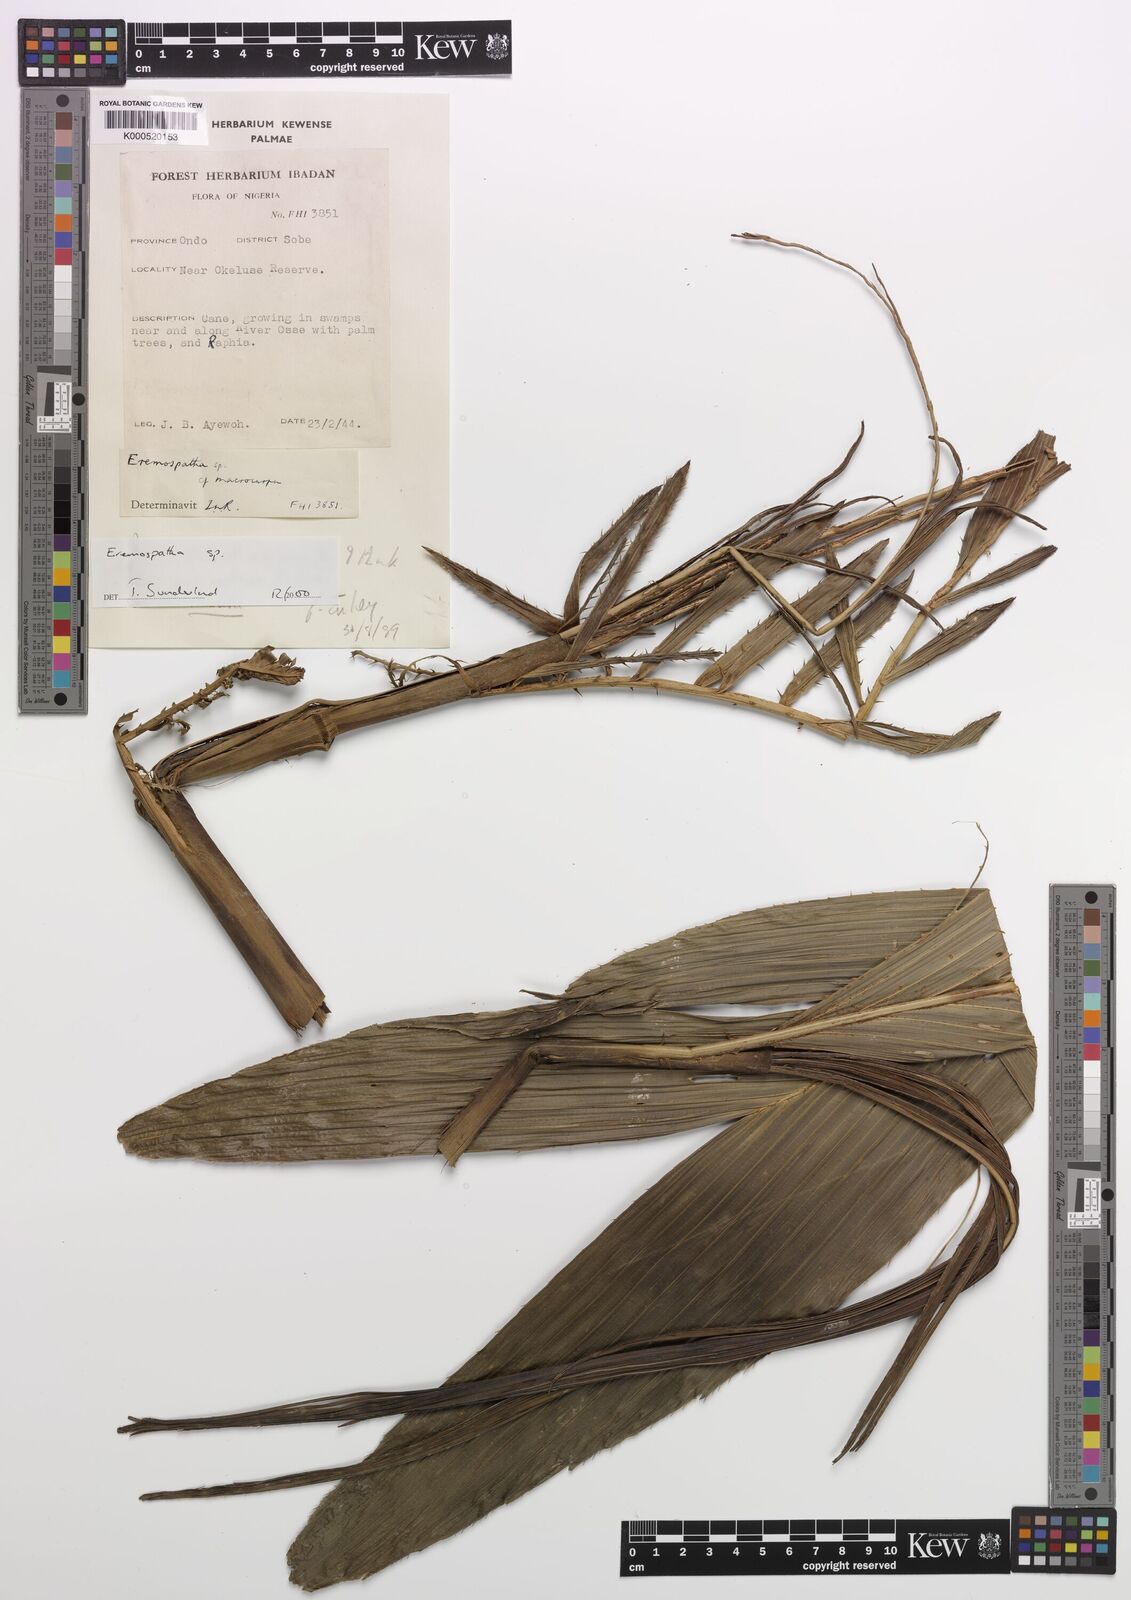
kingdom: Plantae
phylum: Tracheophyta
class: Liliopsida
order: Arecales
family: Arecaceae
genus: Eremospatha
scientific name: Eremospatha
